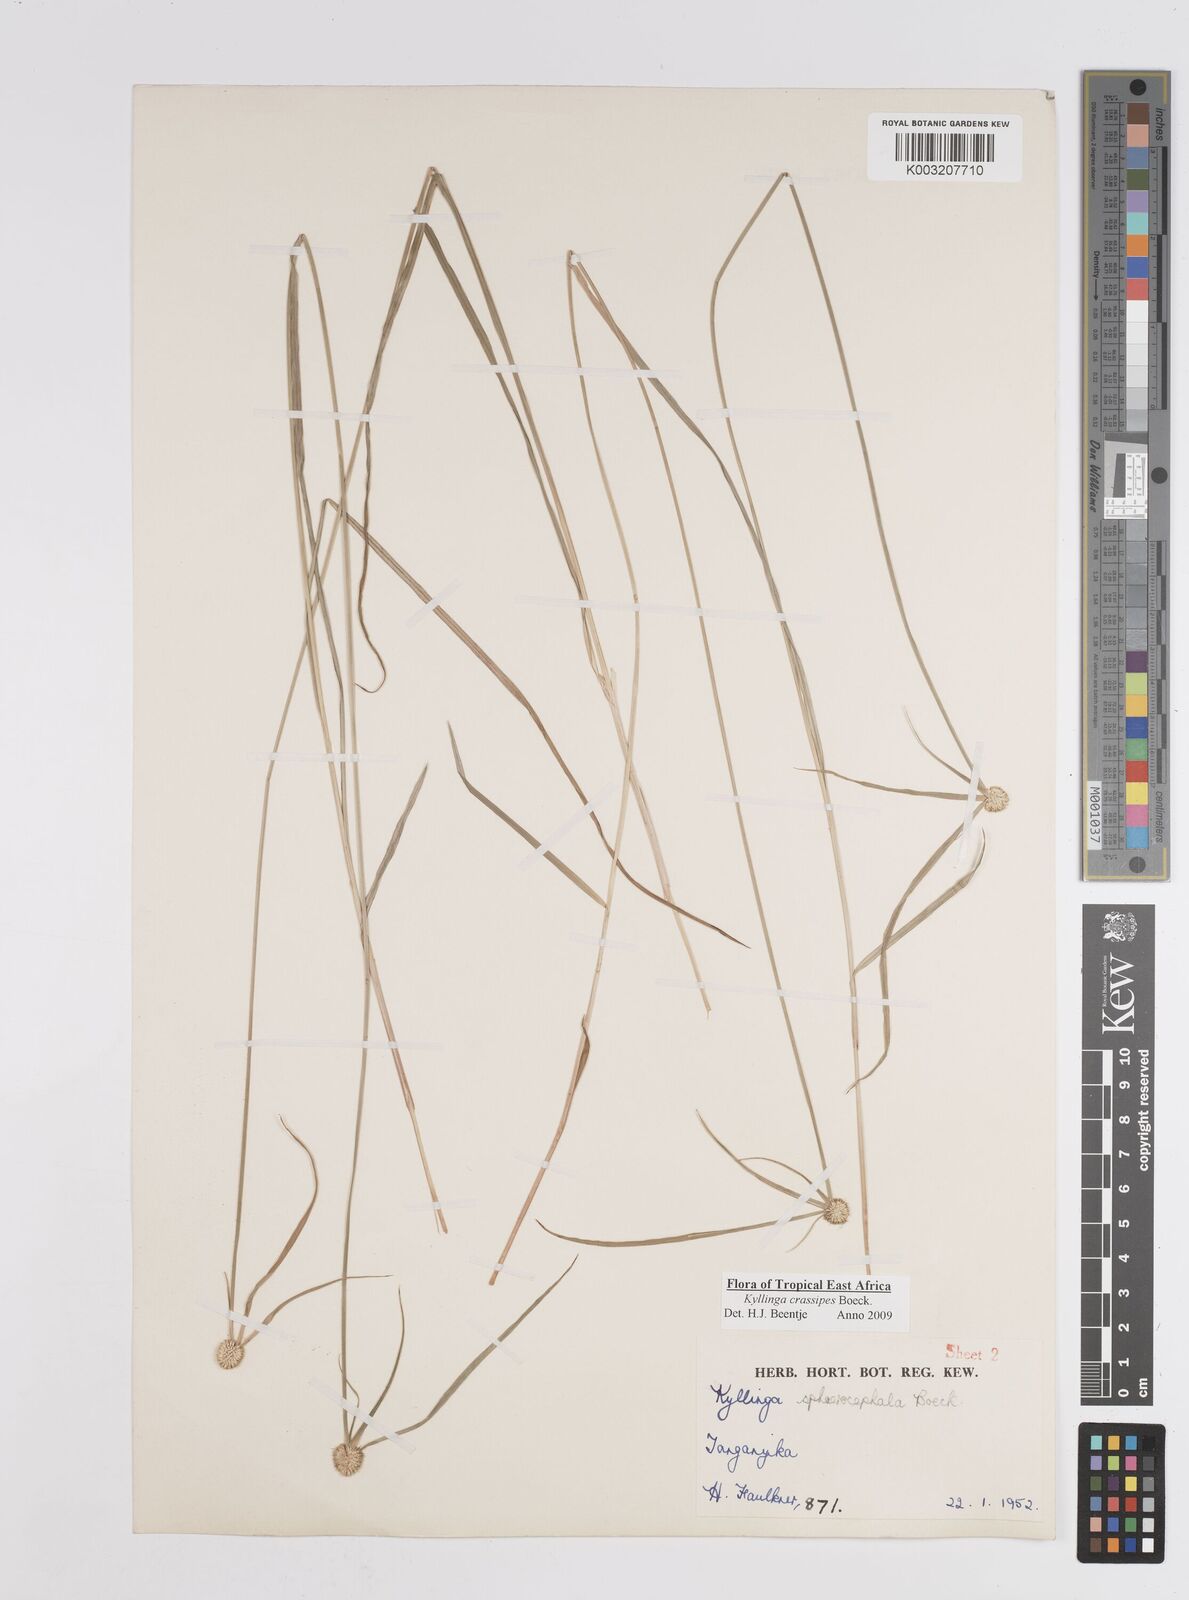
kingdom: Plantae
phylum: Tracheophyta
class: Liliopsida
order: Poales
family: Cyperaceae
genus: Cyperus
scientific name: Cyperus
